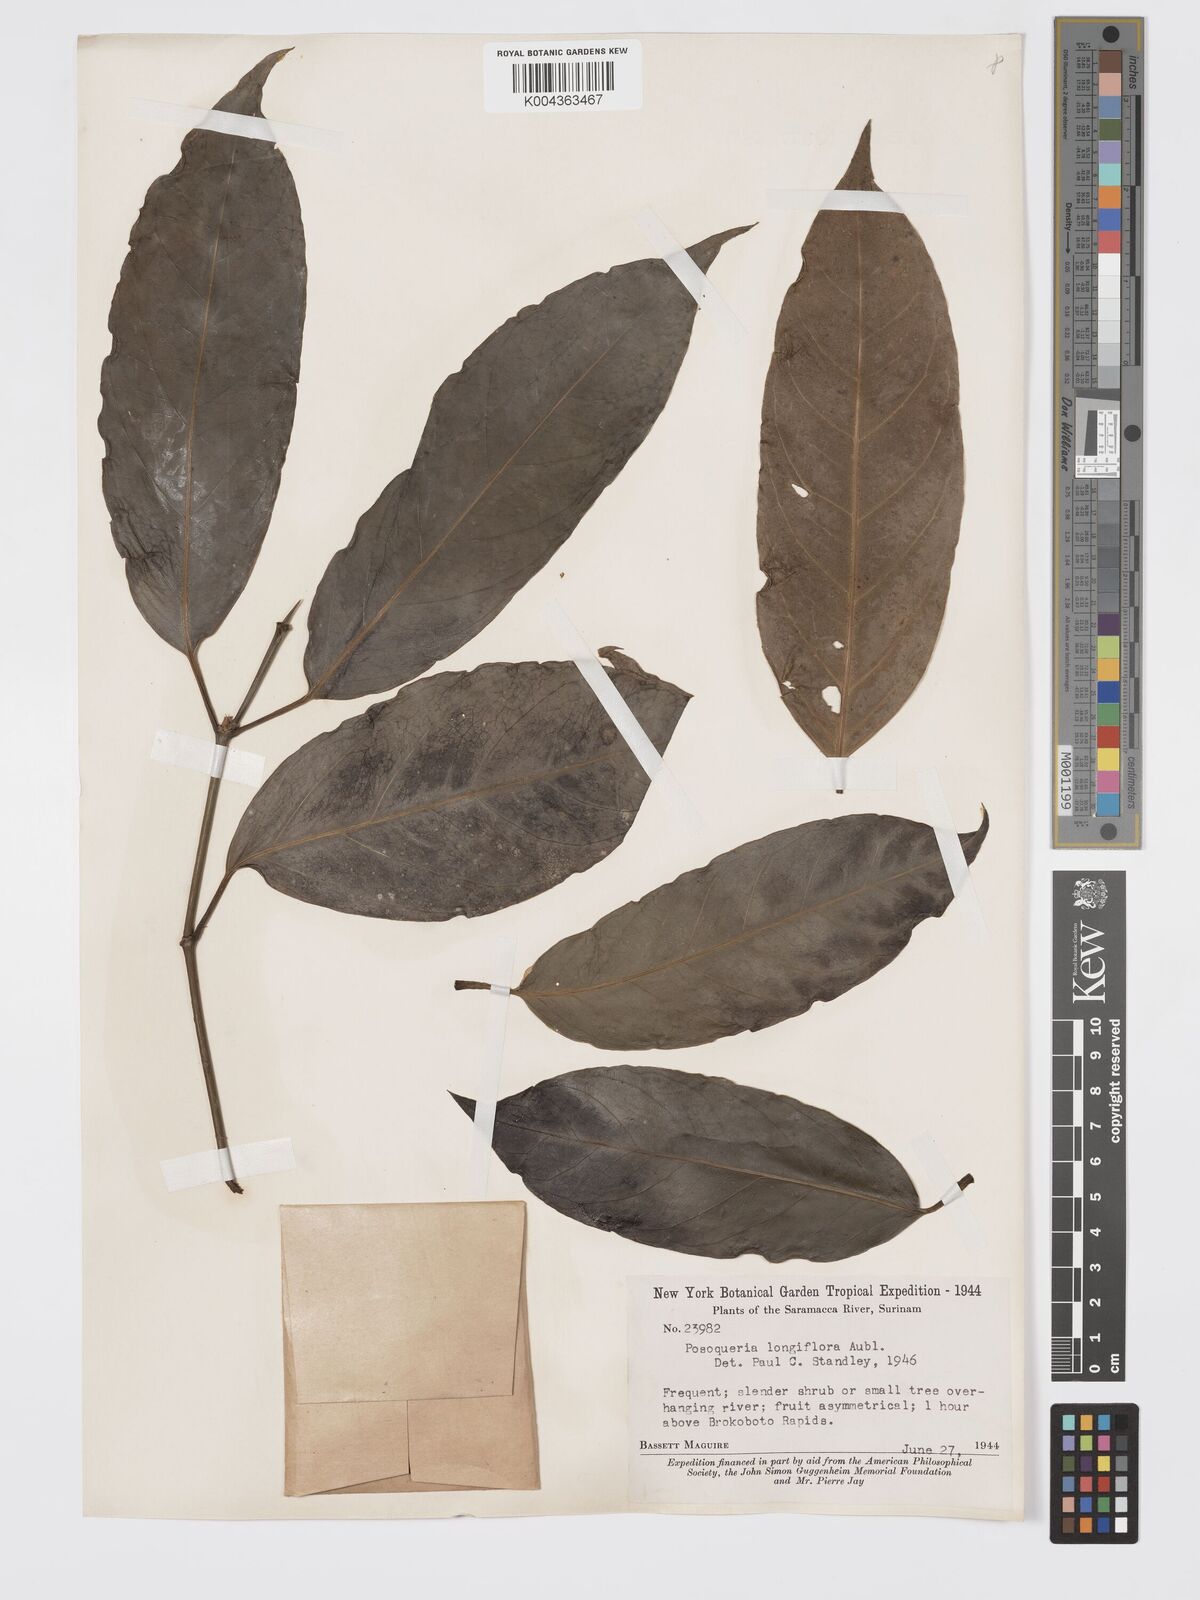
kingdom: Plantae
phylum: Tracheophyta
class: Magnoliopsida
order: Gentianales
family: Rubiaceae
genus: Posoqueria
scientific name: Posoqueria
